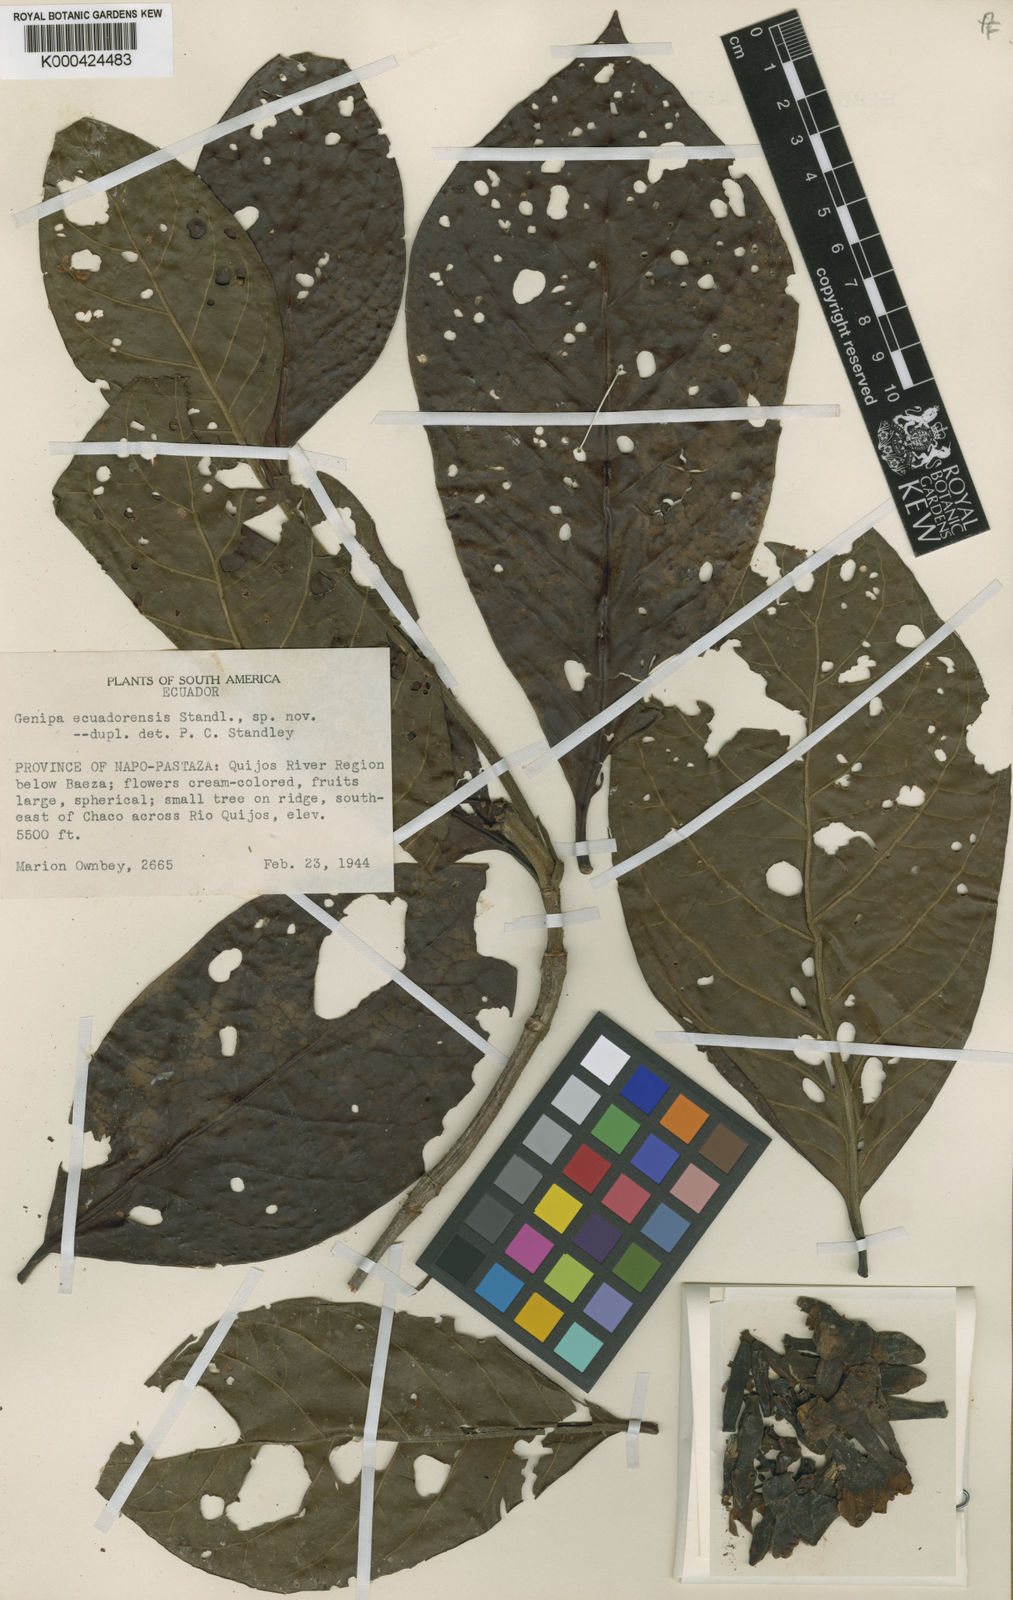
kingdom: Plantae
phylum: Tracheophyta
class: Magnoliopsida
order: Gentianales
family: Rubiaceae
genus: Genipa
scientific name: Genipa
